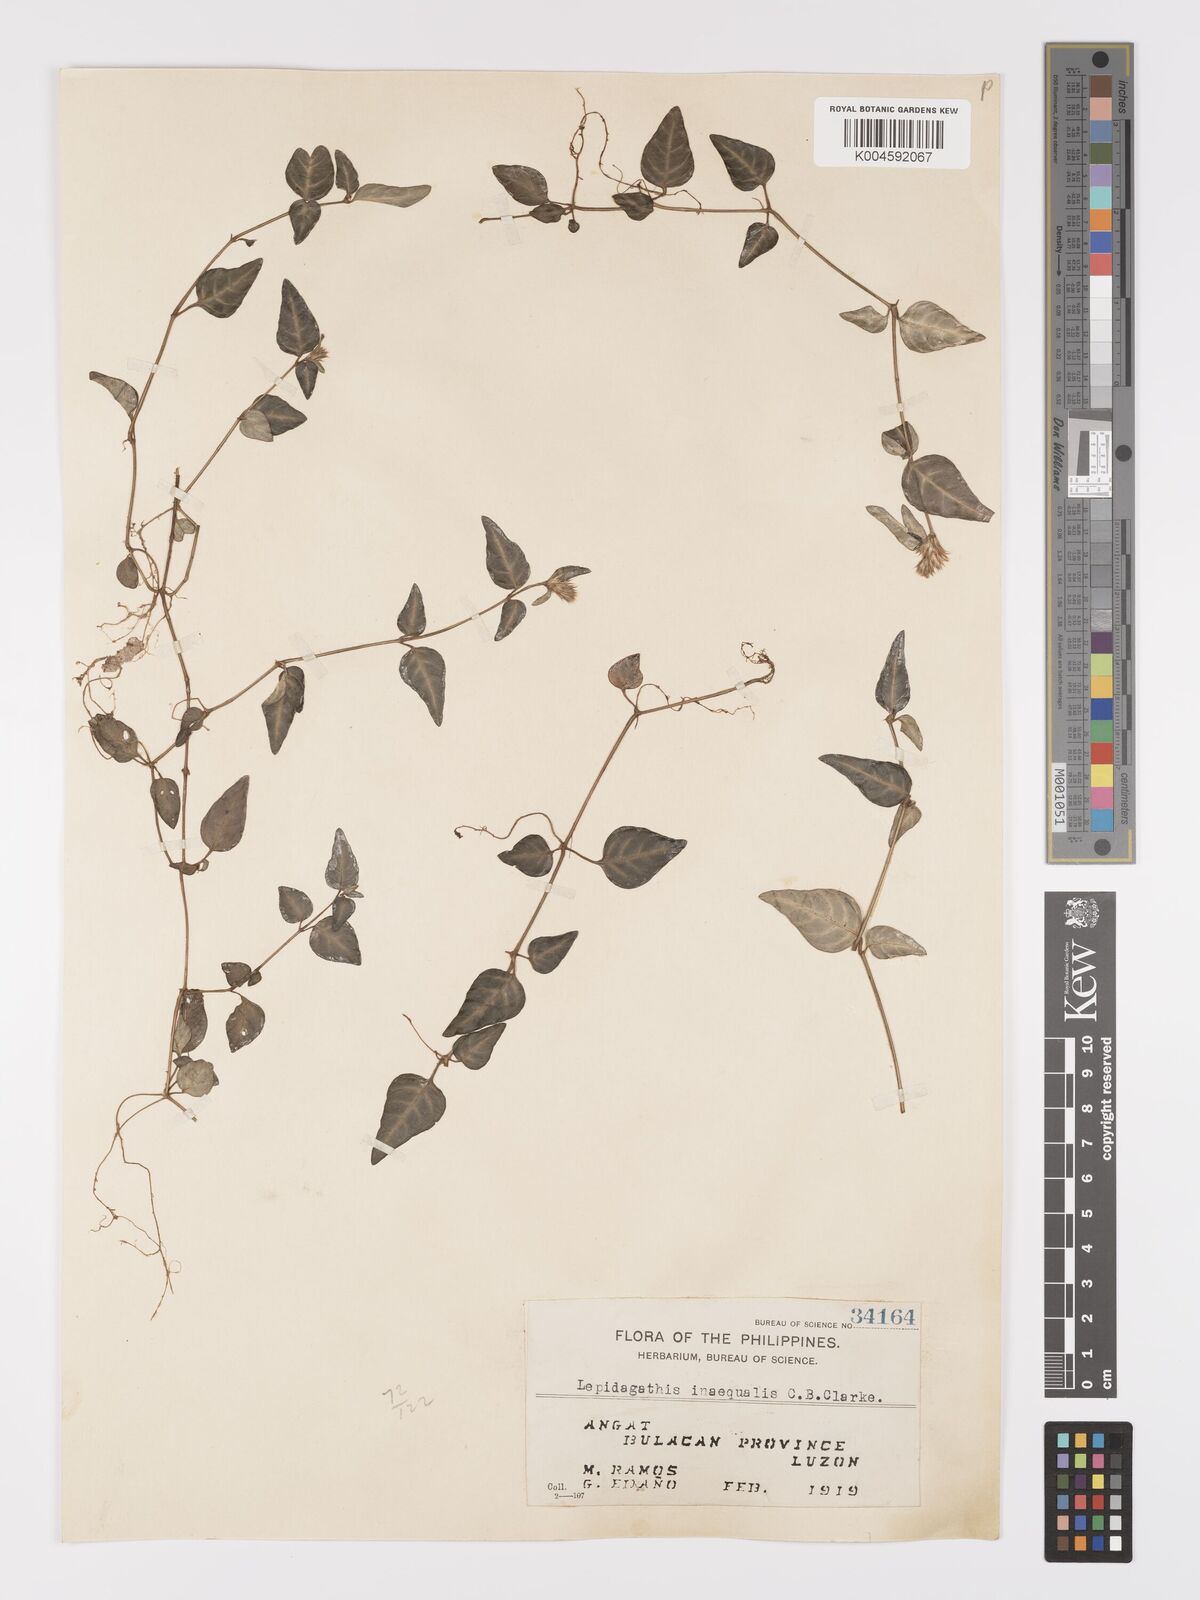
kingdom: Plantae
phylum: Tracheophyta
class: Magnoliopsida
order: Lamiales
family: Acanthaceae
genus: Lepidagathis
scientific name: Lepidagathis inaequalis
